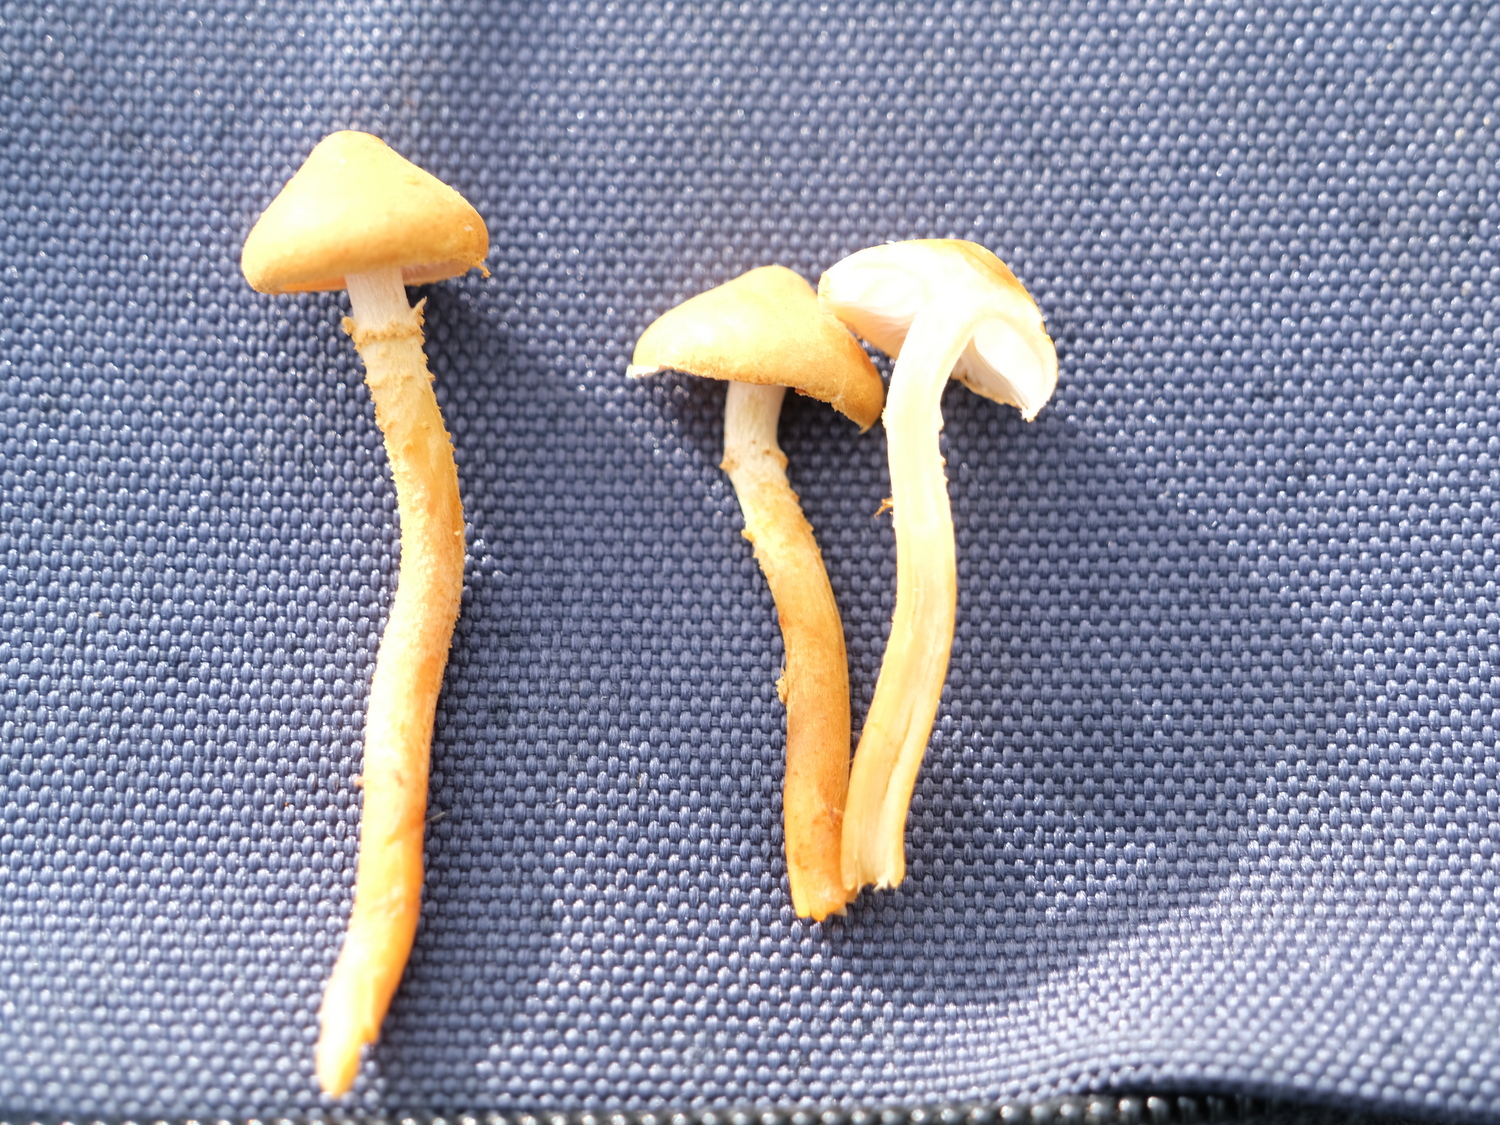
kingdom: Fungi
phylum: Basidiomycota
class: Agaricomycetes
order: Agaricales
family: Tricholomataceae
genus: Cystoderma
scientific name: Cystoderma amianthinum
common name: okkergul grynhat
